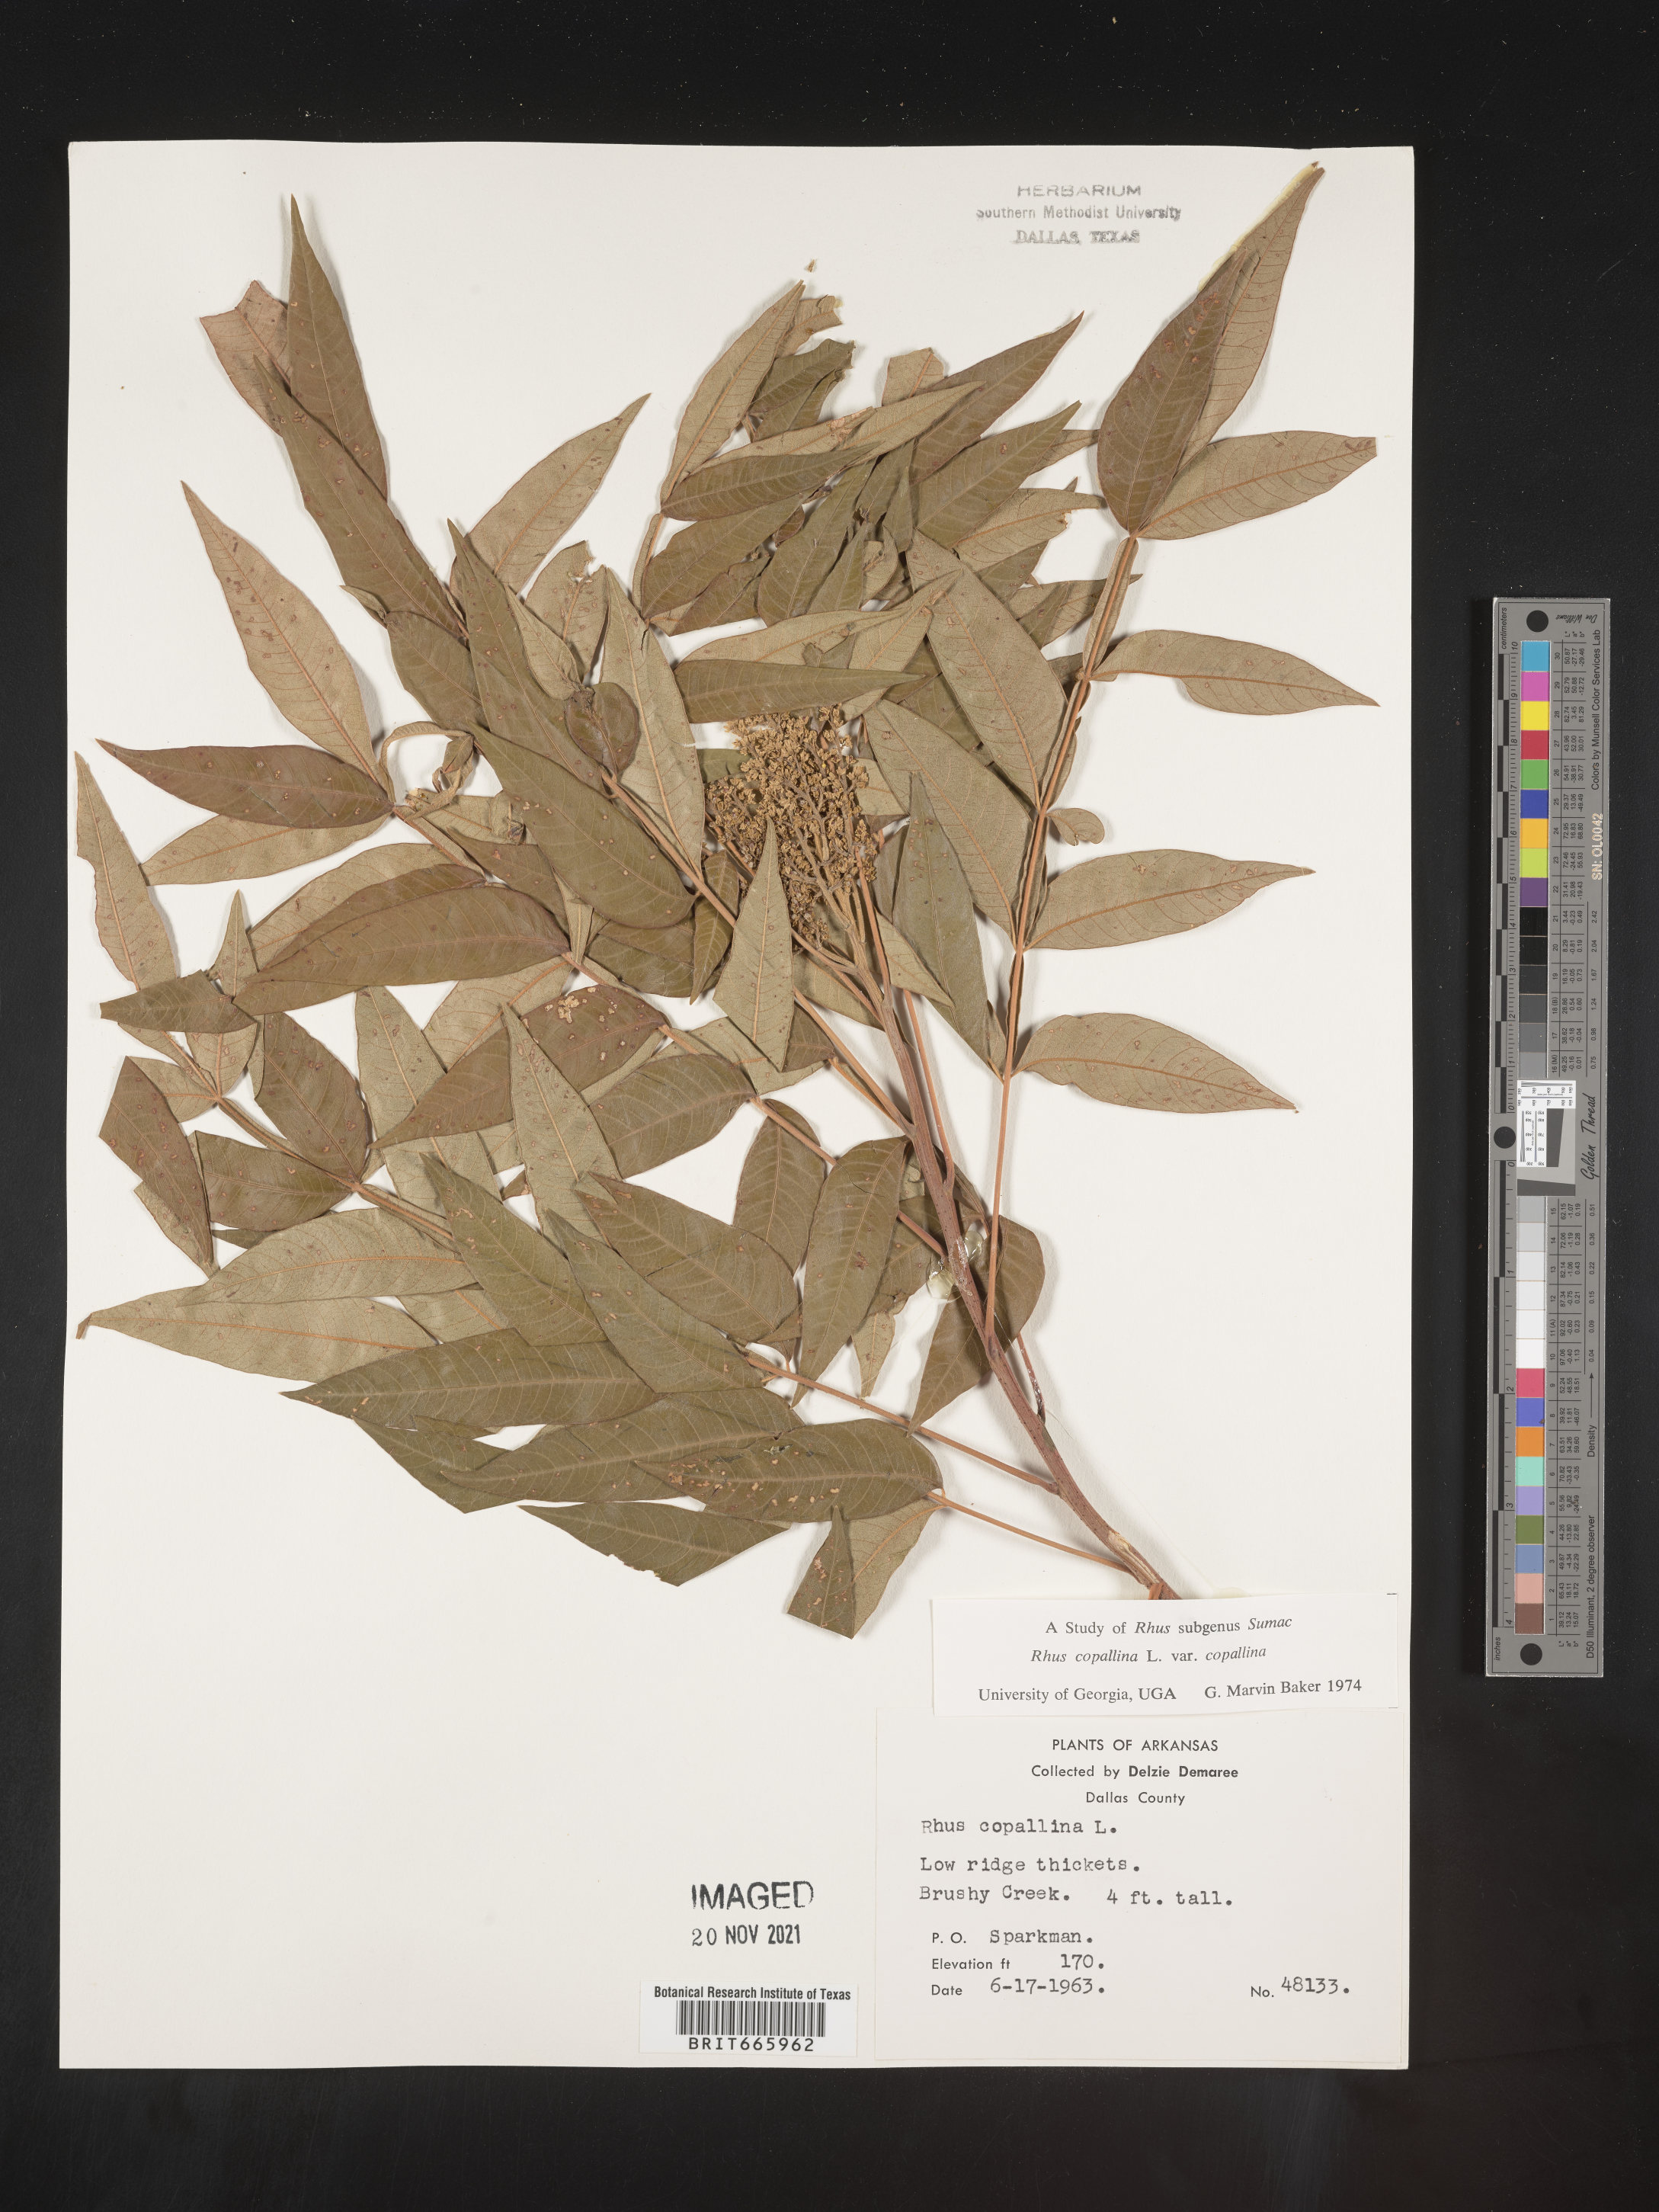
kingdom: Plantae
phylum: Tracheophyta
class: Magnoliopsida
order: Sapindales
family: Anacardiaceae
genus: Rhus
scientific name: Rhus copallina
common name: Shining sumac
